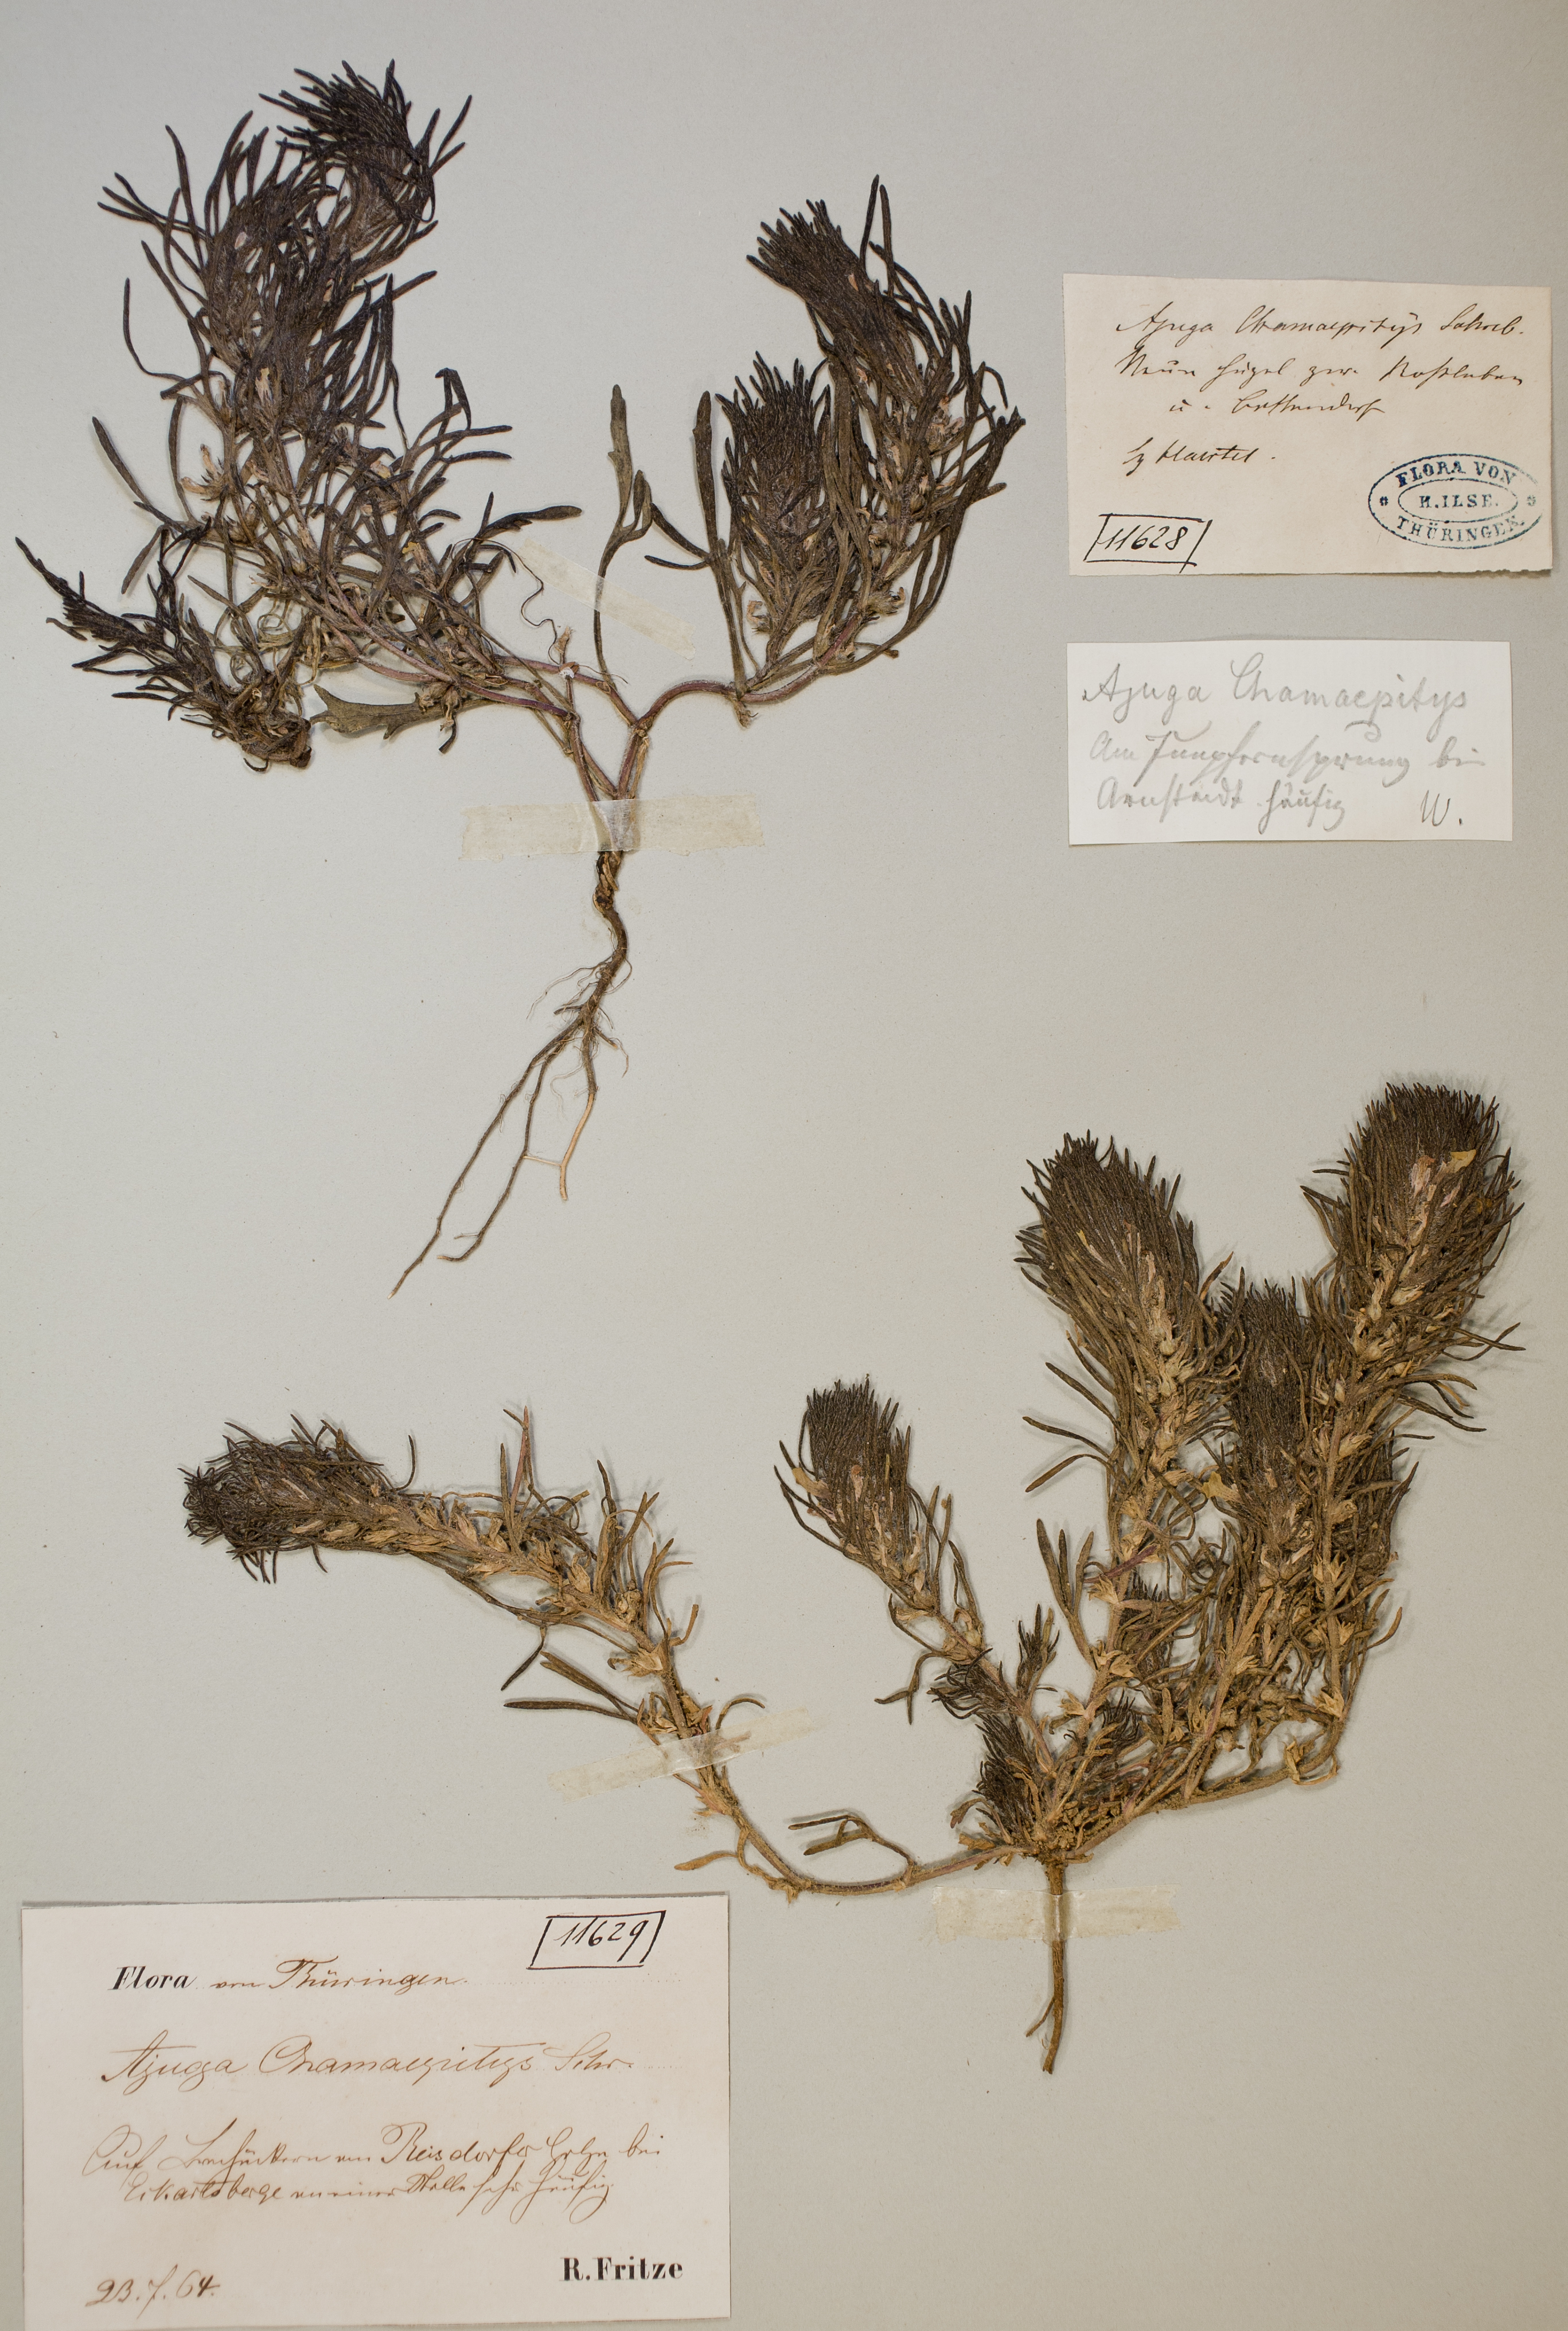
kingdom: Plantae
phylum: Tracheophyta
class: Magnoliopsida
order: Lamiales
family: Lamiaceae
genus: Ajuga
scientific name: Ajuga chamaepitys
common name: Ground-pine
